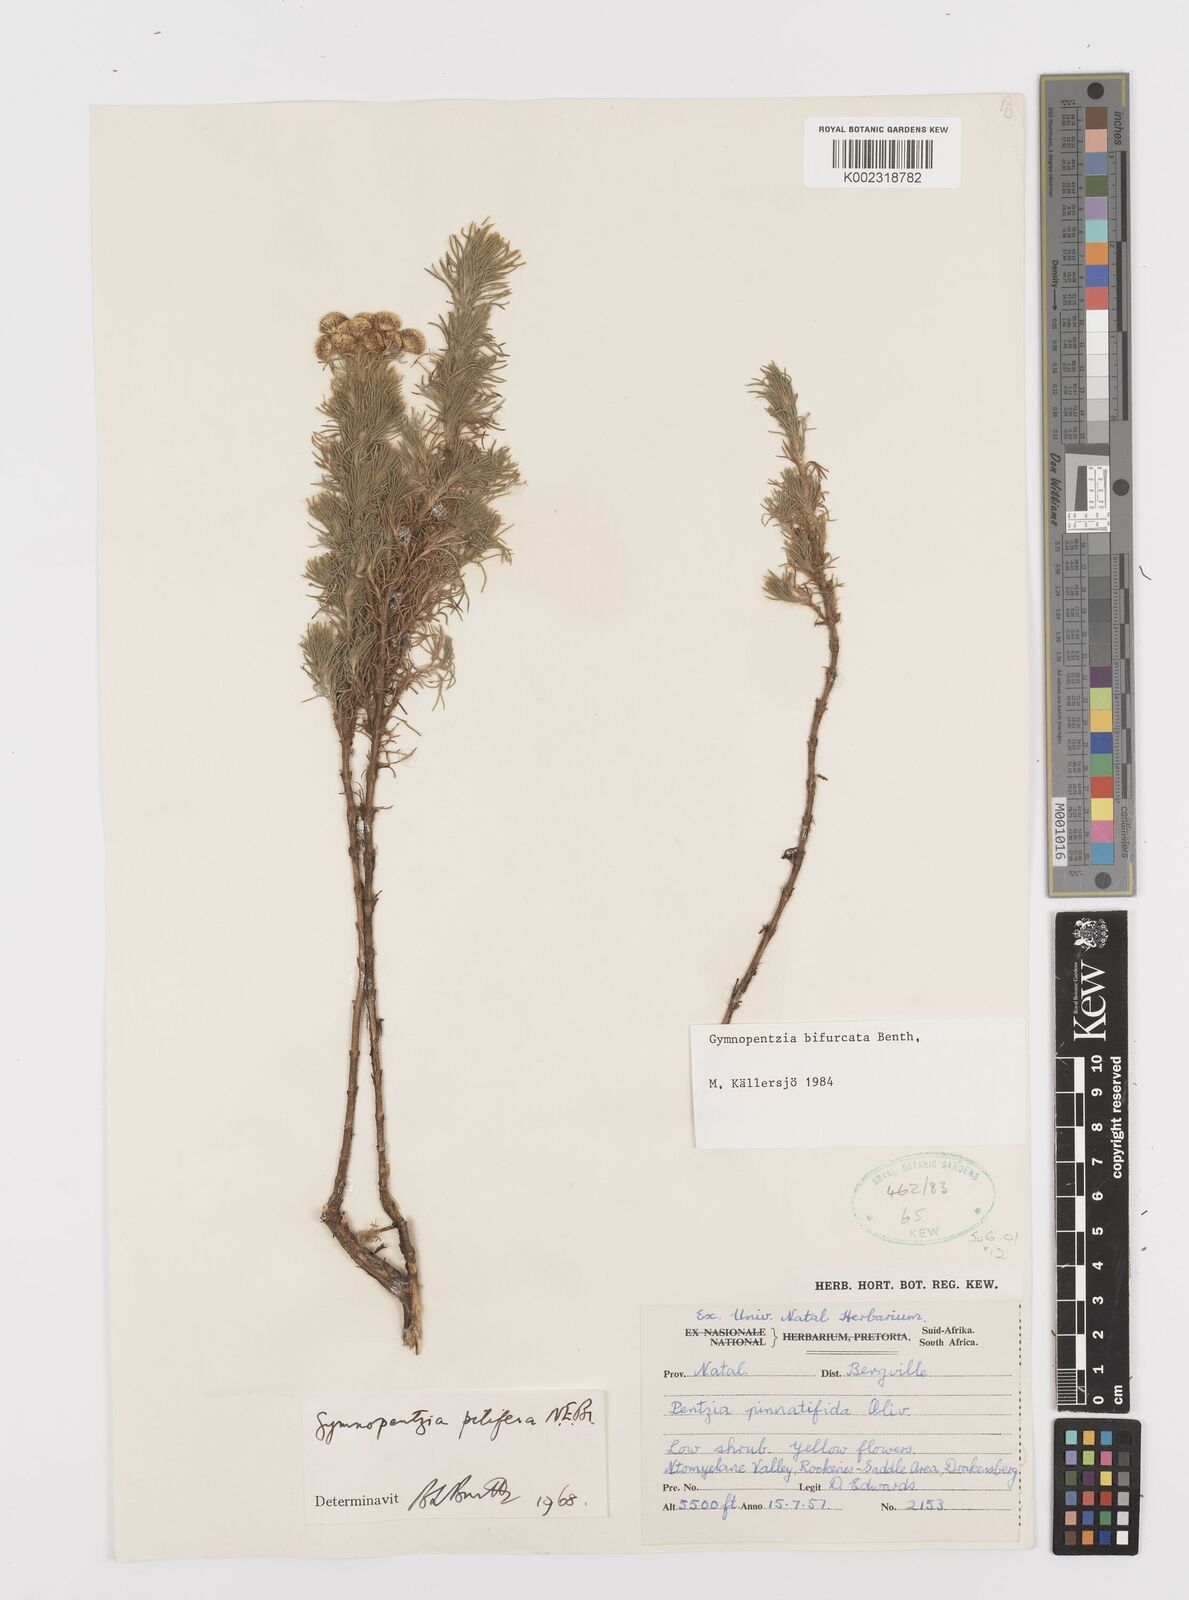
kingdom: Plantae
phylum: Tracheophyta
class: Magnoliopsida
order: Asterales
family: Asteraceae
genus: Gymnopentzia
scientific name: Gymnopentzia bifurcata
